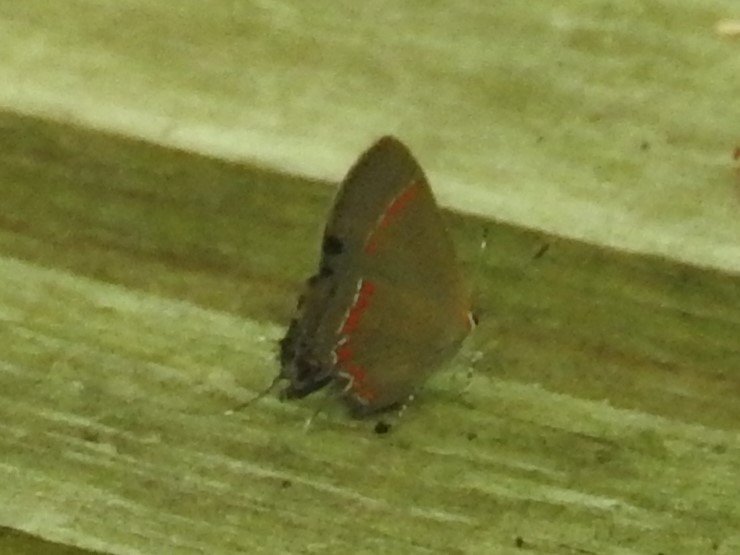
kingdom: Animalia
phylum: Arthropoda
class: Insecta
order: Lepidoptera
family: Lycaenidae
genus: Calycopis
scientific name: Calycopis cecrops
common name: Red-banded Hairstreak
